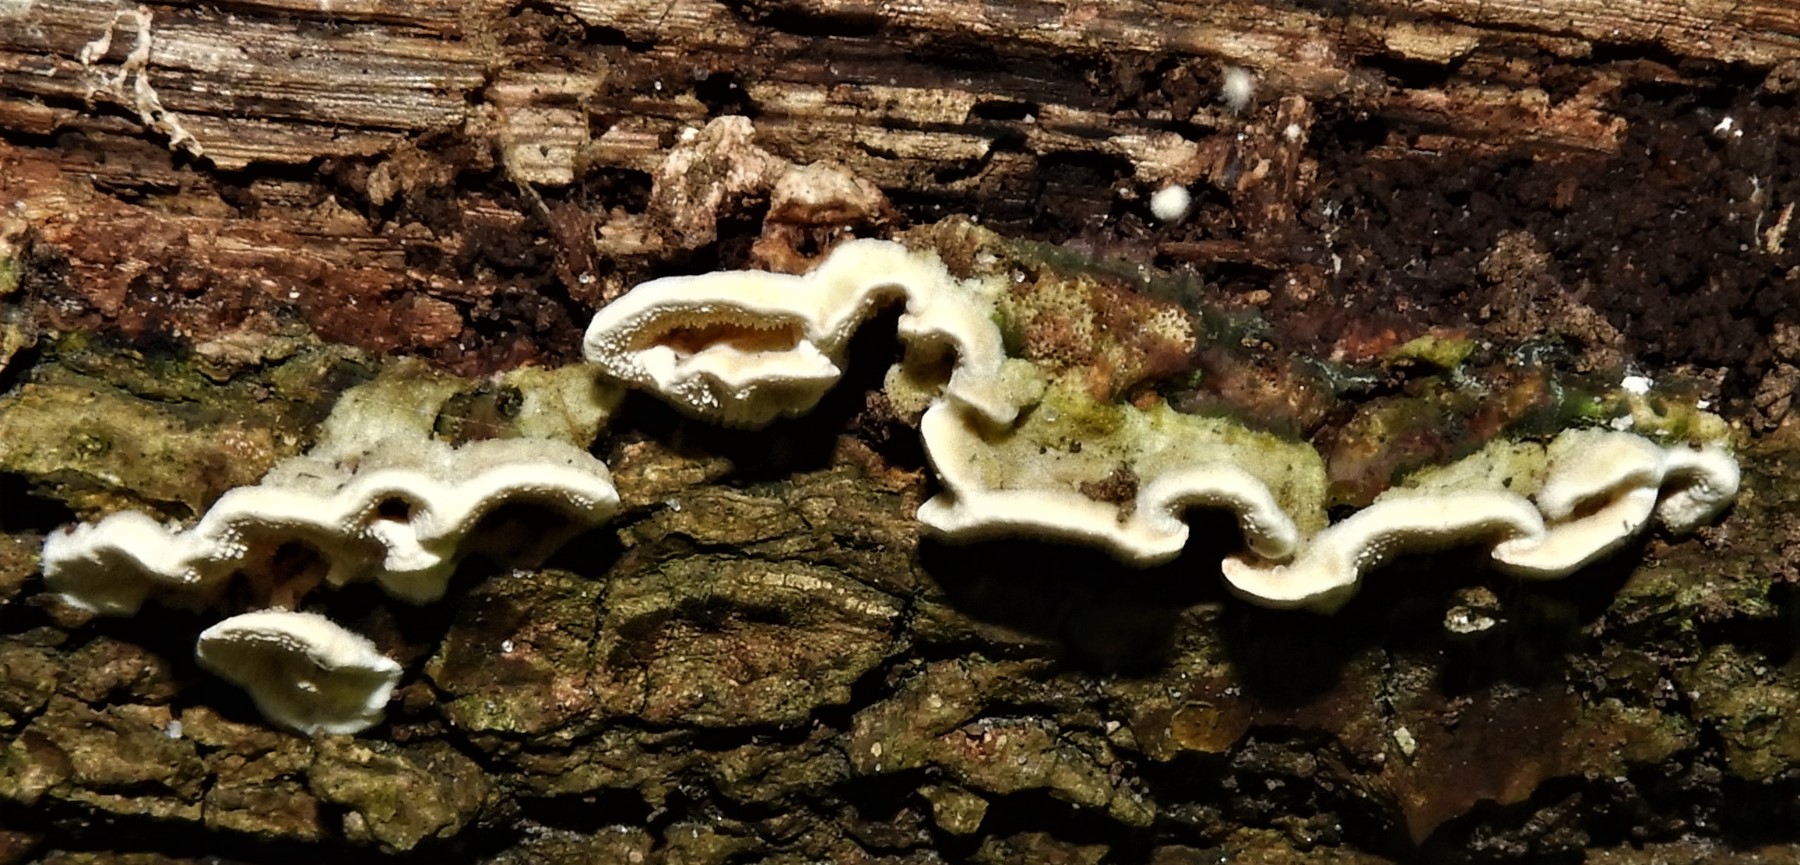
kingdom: Fungi
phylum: Basidiomycota
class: Agaricomycetes
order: Polyporales
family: Steccherinaceae
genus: Steccherinum
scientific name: Steccherinum bourdotii
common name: hat-skønpig
